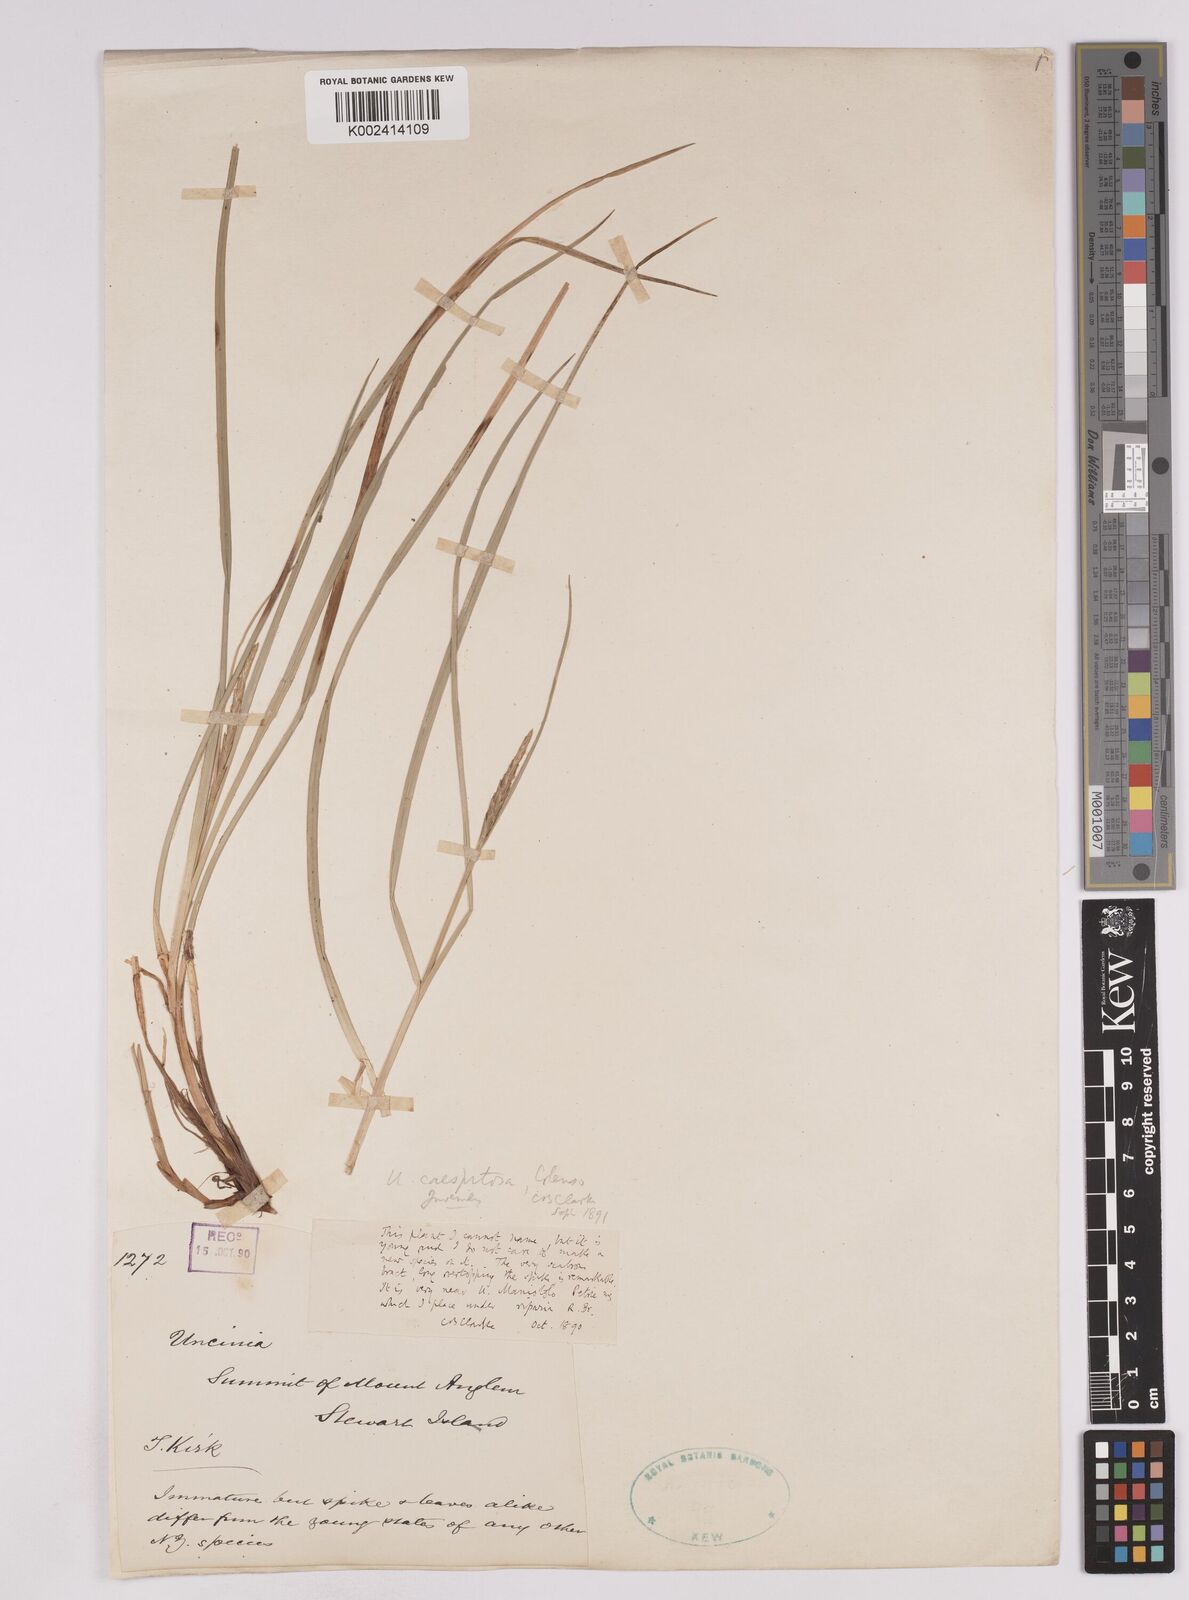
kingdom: Plantae
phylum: Tracheophyta
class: Liliopsida
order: Poales
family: Cyperaceae
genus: Carex
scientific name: Carex astricta
